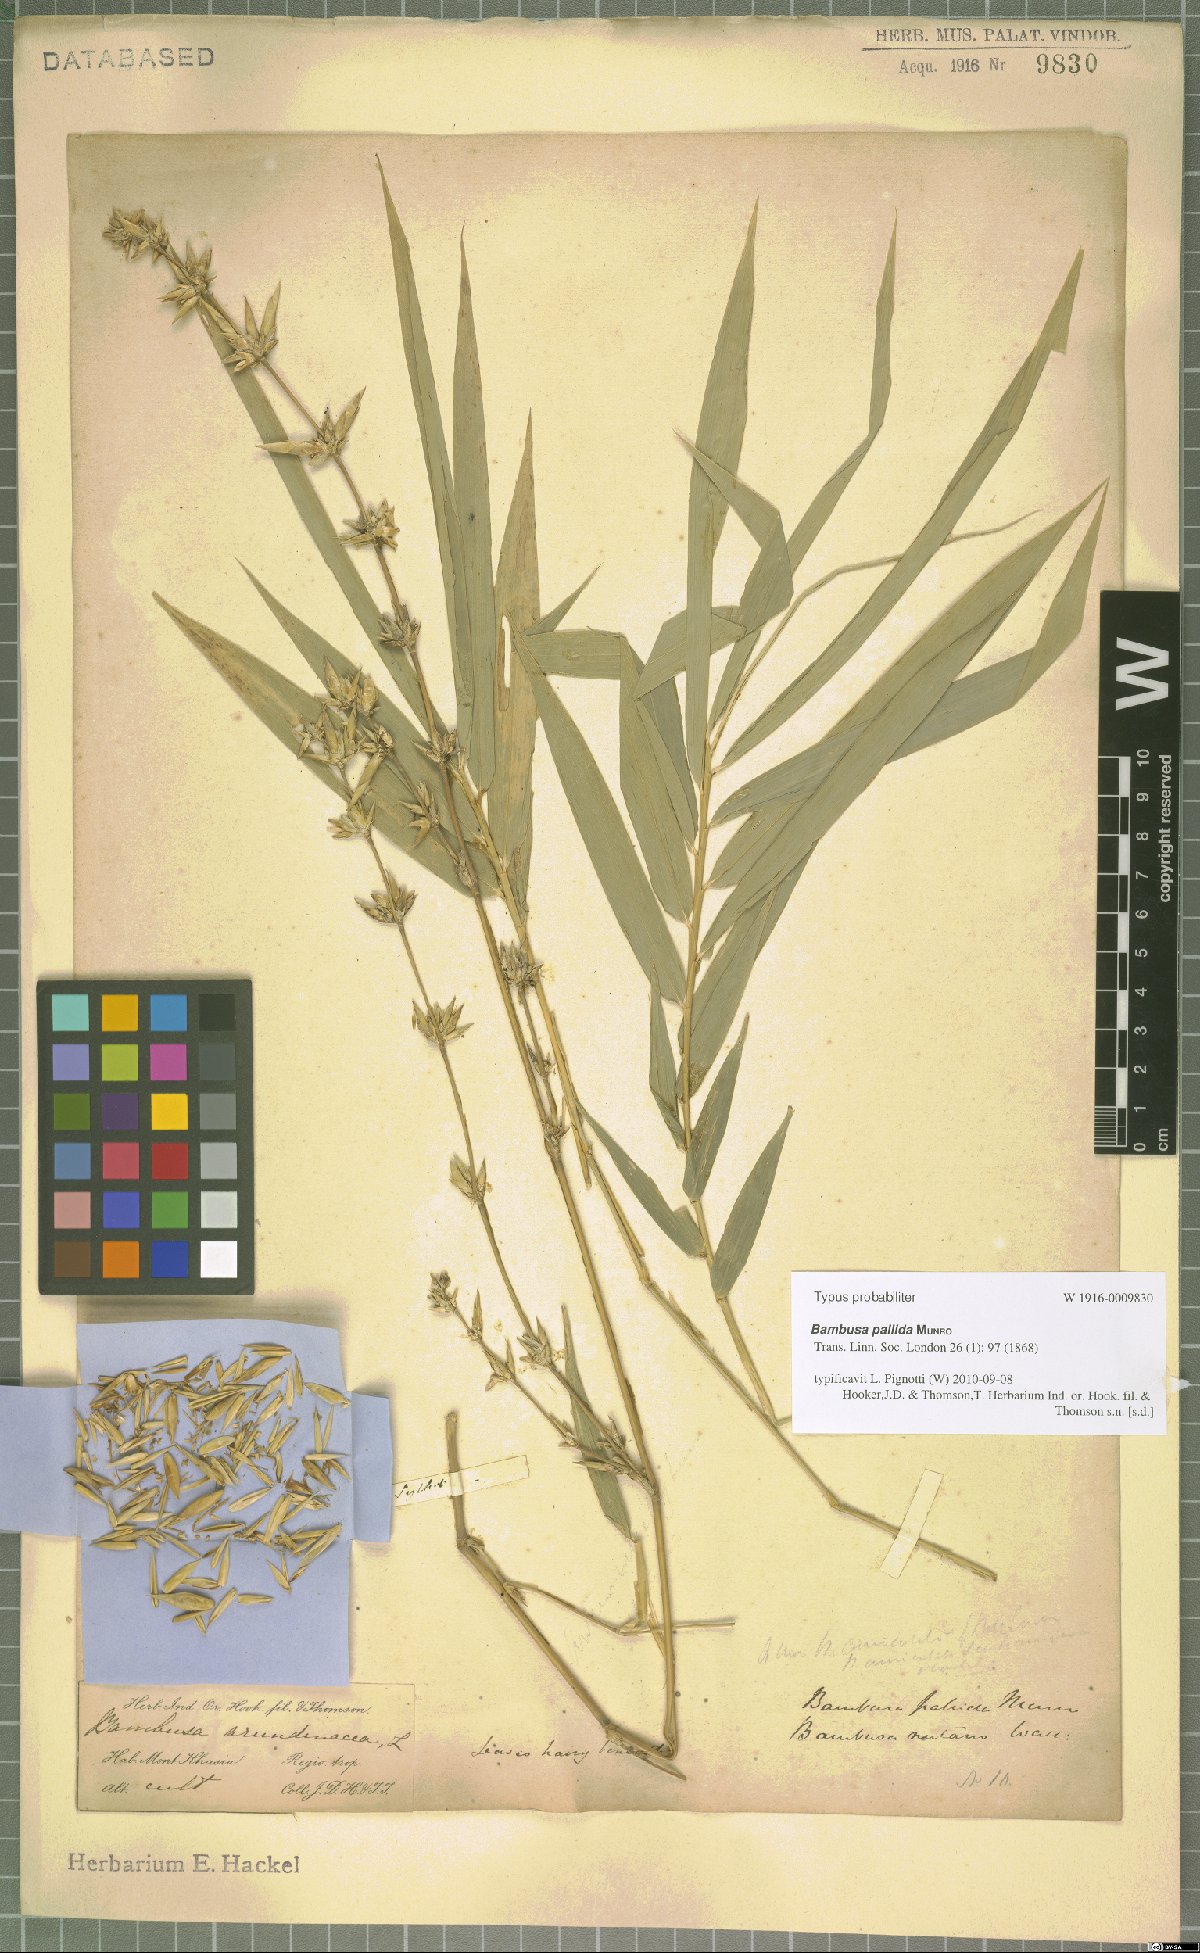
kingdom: Plantae
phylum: Tracheophyta
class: Liliopsida
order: Poales
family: Poaceae
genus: Bambusa
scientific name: Bambusa pallida
